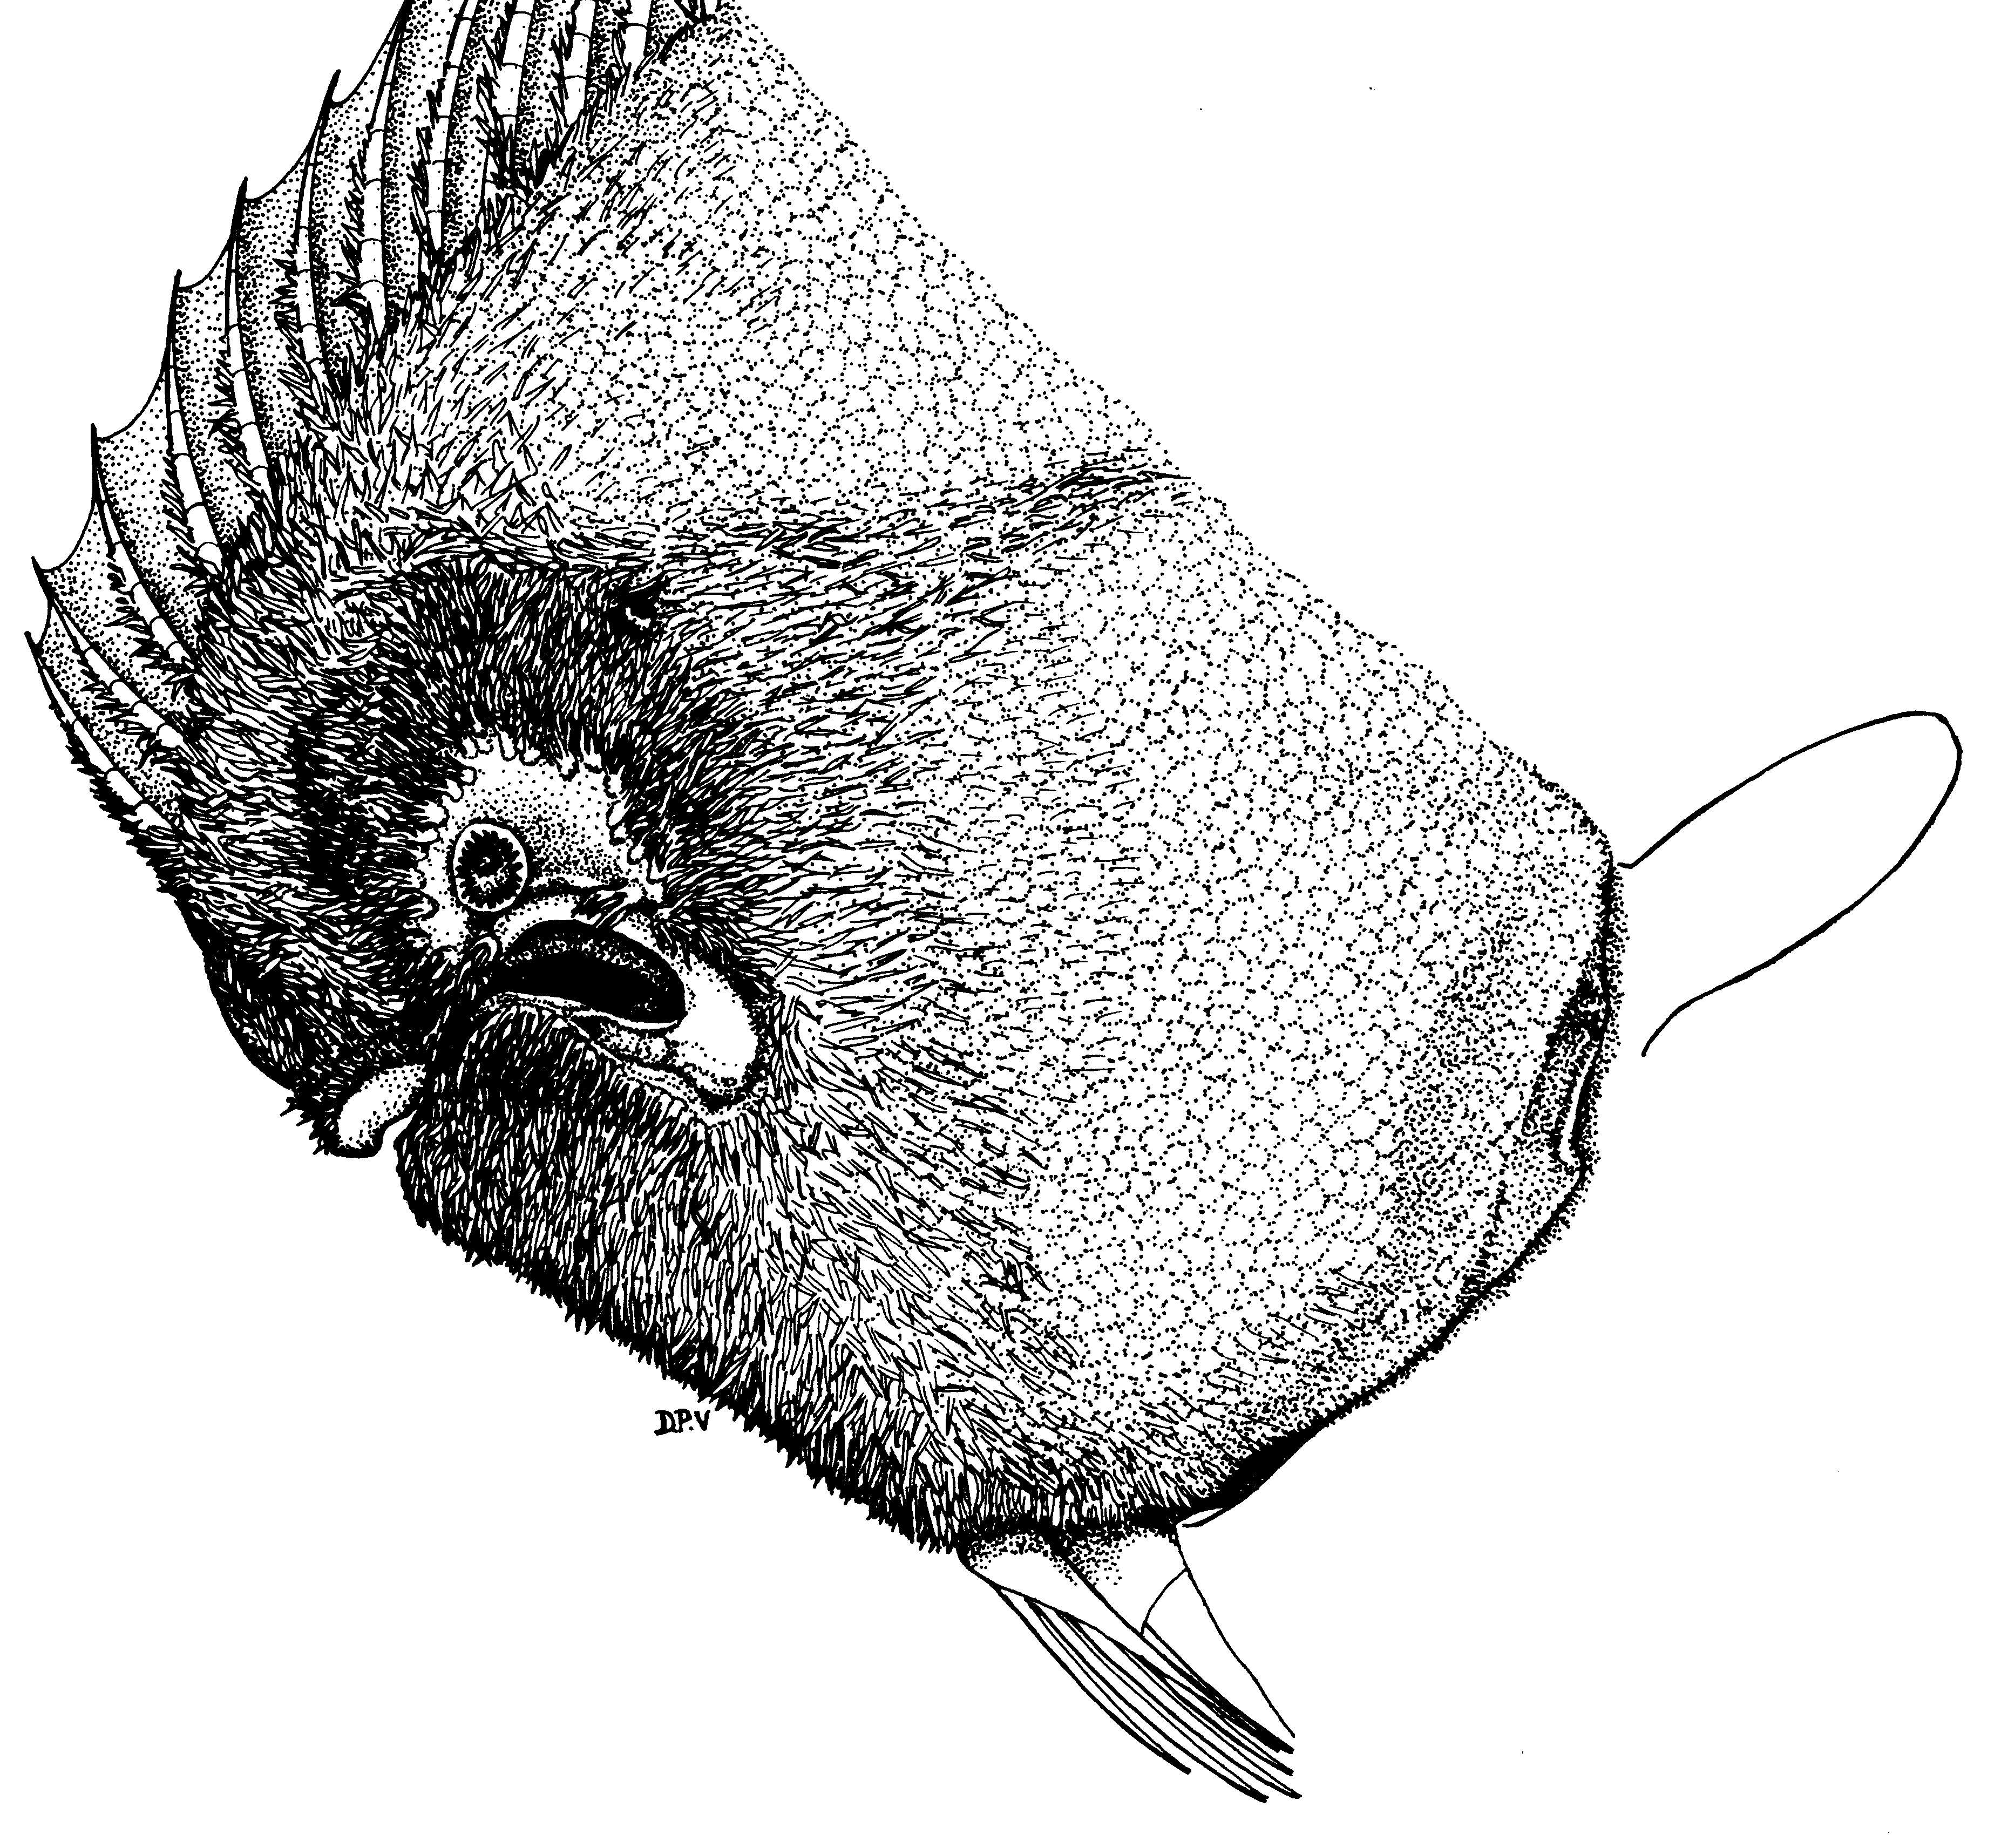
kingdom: Animalia
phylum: Chordata
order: Pleuronectiformes
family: Soleidae
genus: Synapturichthys
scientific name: Synapturichthys kleinii
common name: Klein's sole
